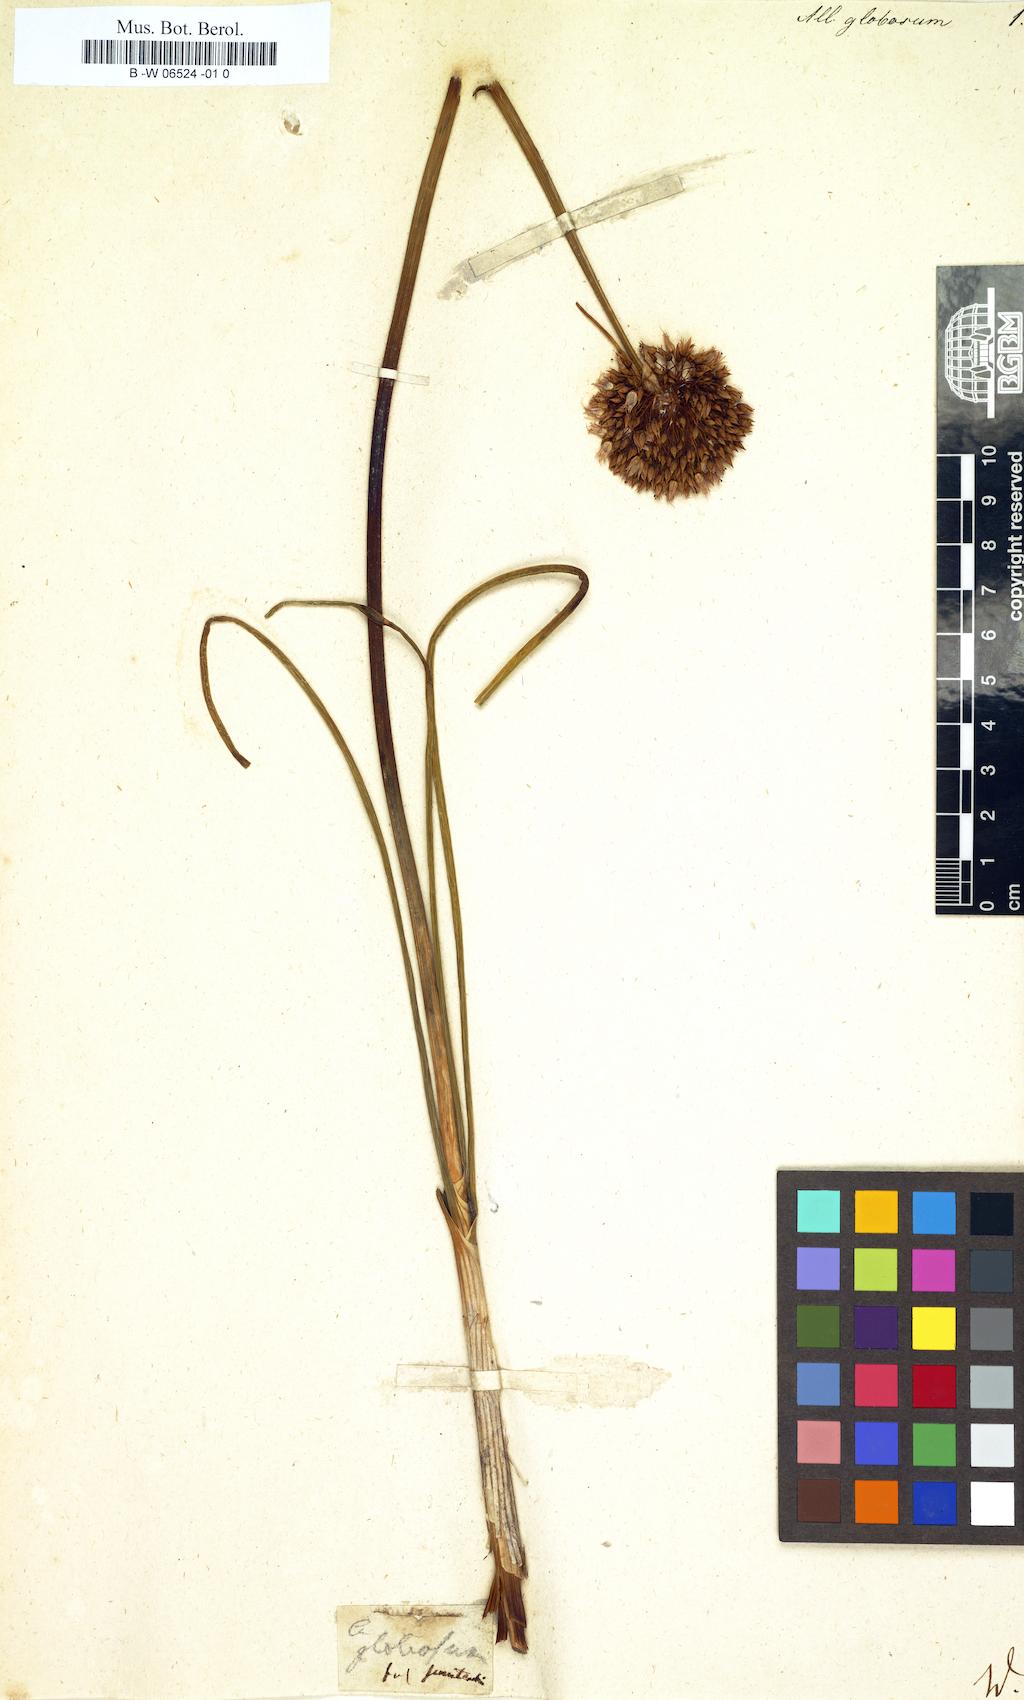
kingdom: Plantae
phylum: Tracheophyta
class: Liliopsida
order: Asparagales
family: Amaryllidaceae
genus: Allium
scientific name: Allium saxatile
